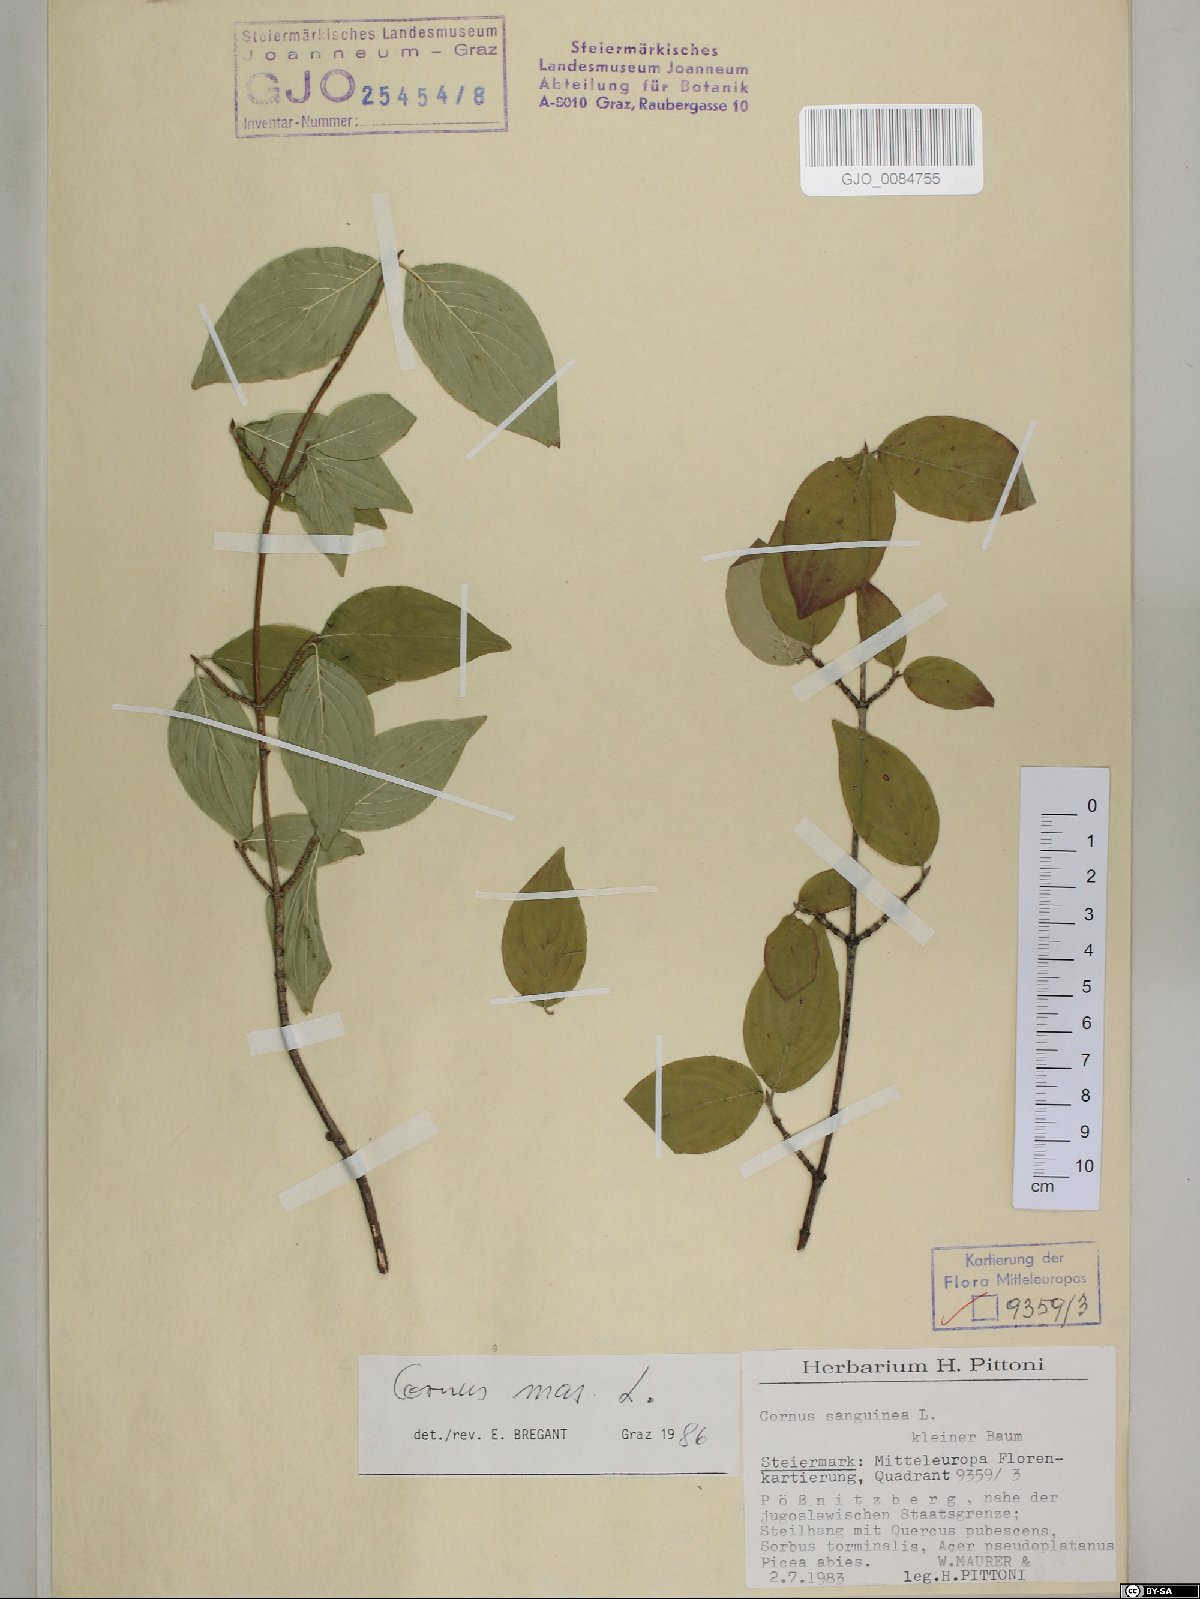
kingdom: Plantae
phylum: Tracheophyta
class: Magnoliopsida
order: Cornales
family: Cornaceae
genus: Cornus
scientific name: Cornus mas
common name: Cornelian-cherry
